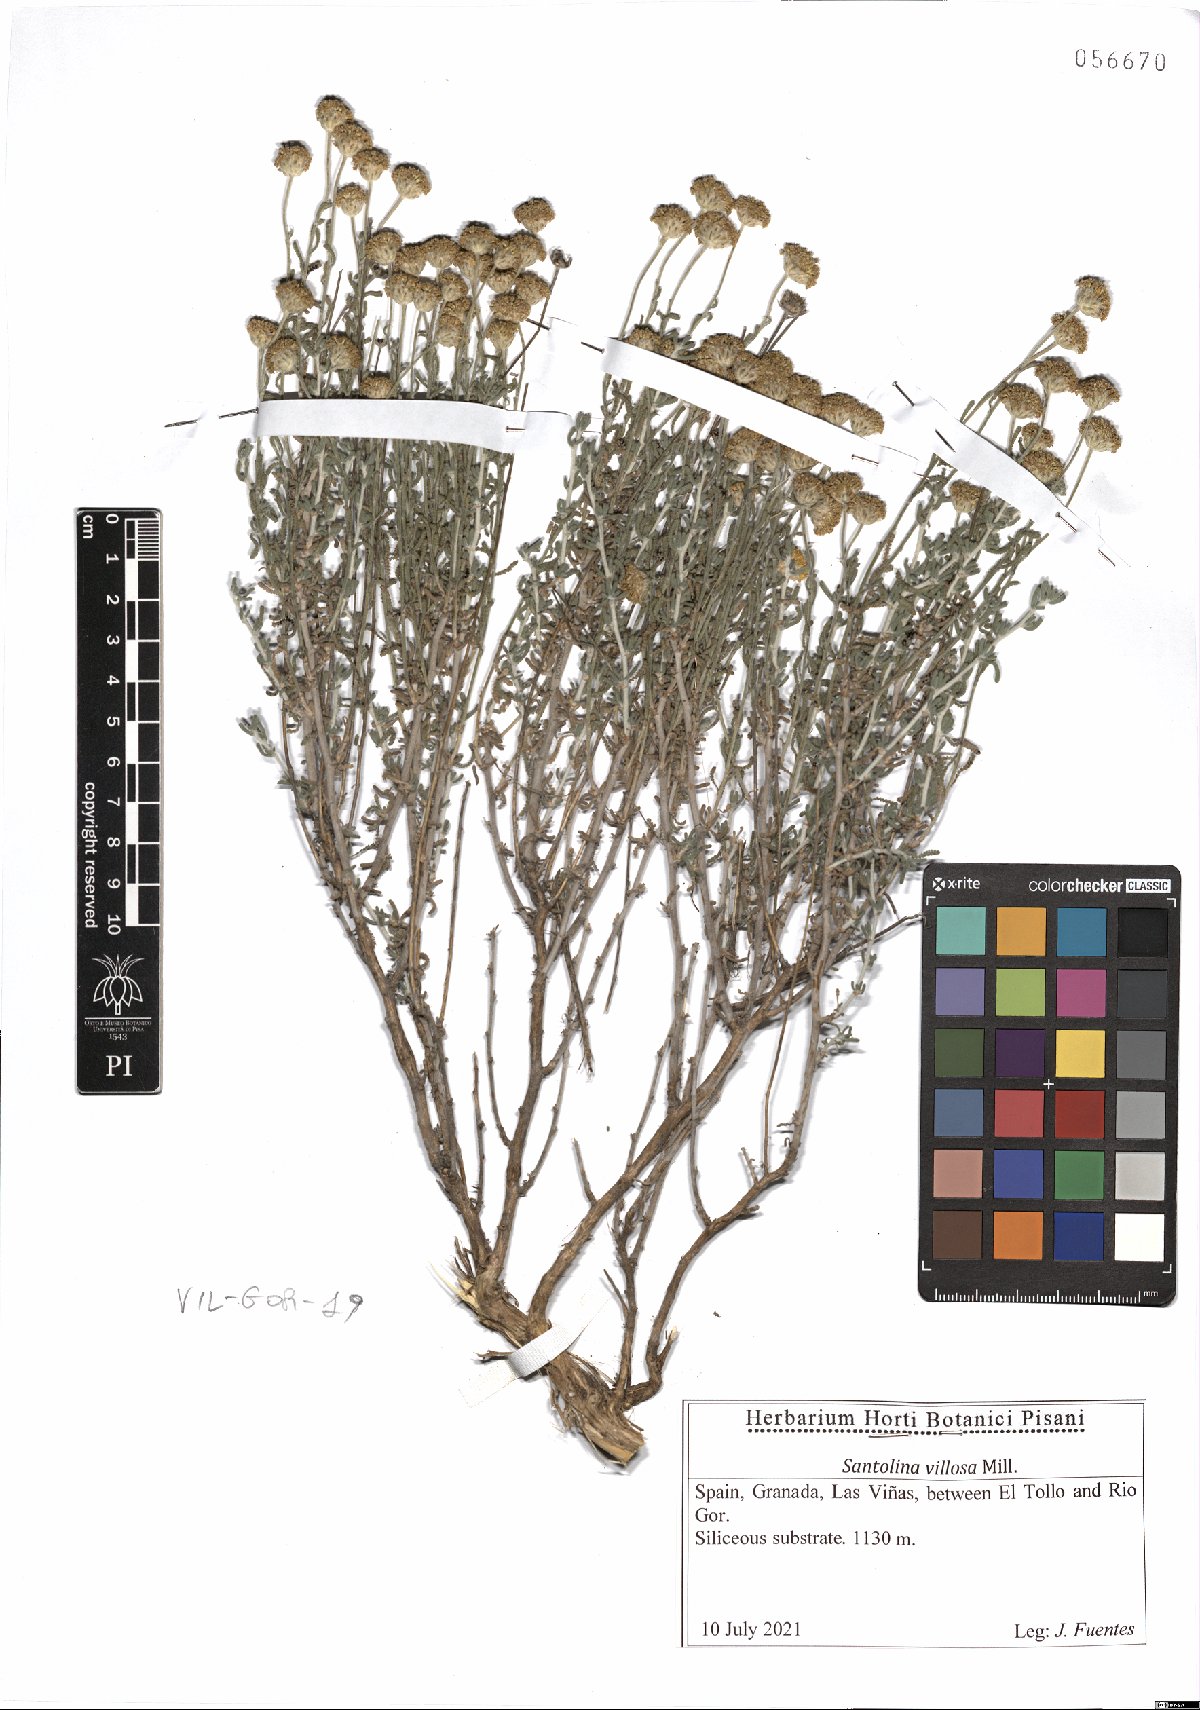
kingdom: Plantae
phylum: Tracheophyta
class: Magnoliopsida
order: Asterales
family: Asteraceae
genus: Santolina
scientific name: Santolina chamaecyparissus
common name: Lavender-cotton
